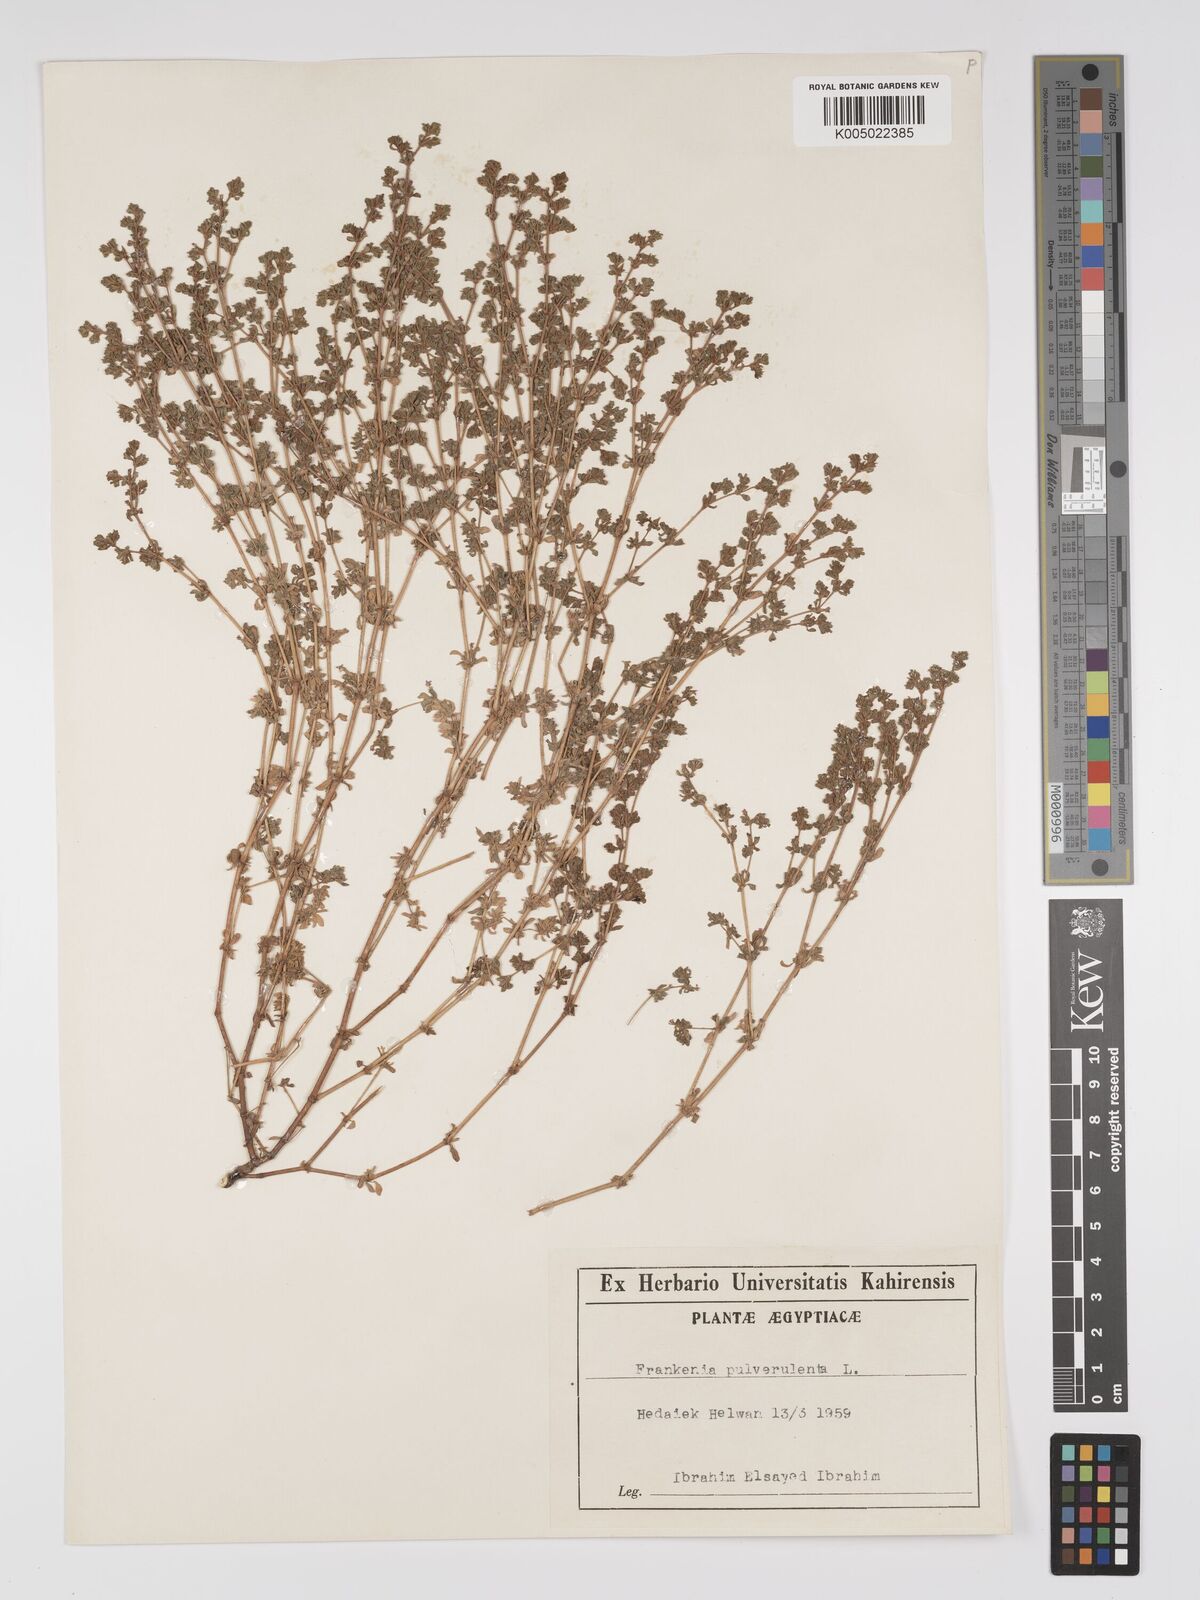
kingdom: Plantae
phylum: Tracheophyta
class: Magnoliopsida
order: Caryophyllales
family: Frankeniaceae
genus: Frankenia
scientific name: Frankenia pulverulenta
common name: European seaheath
